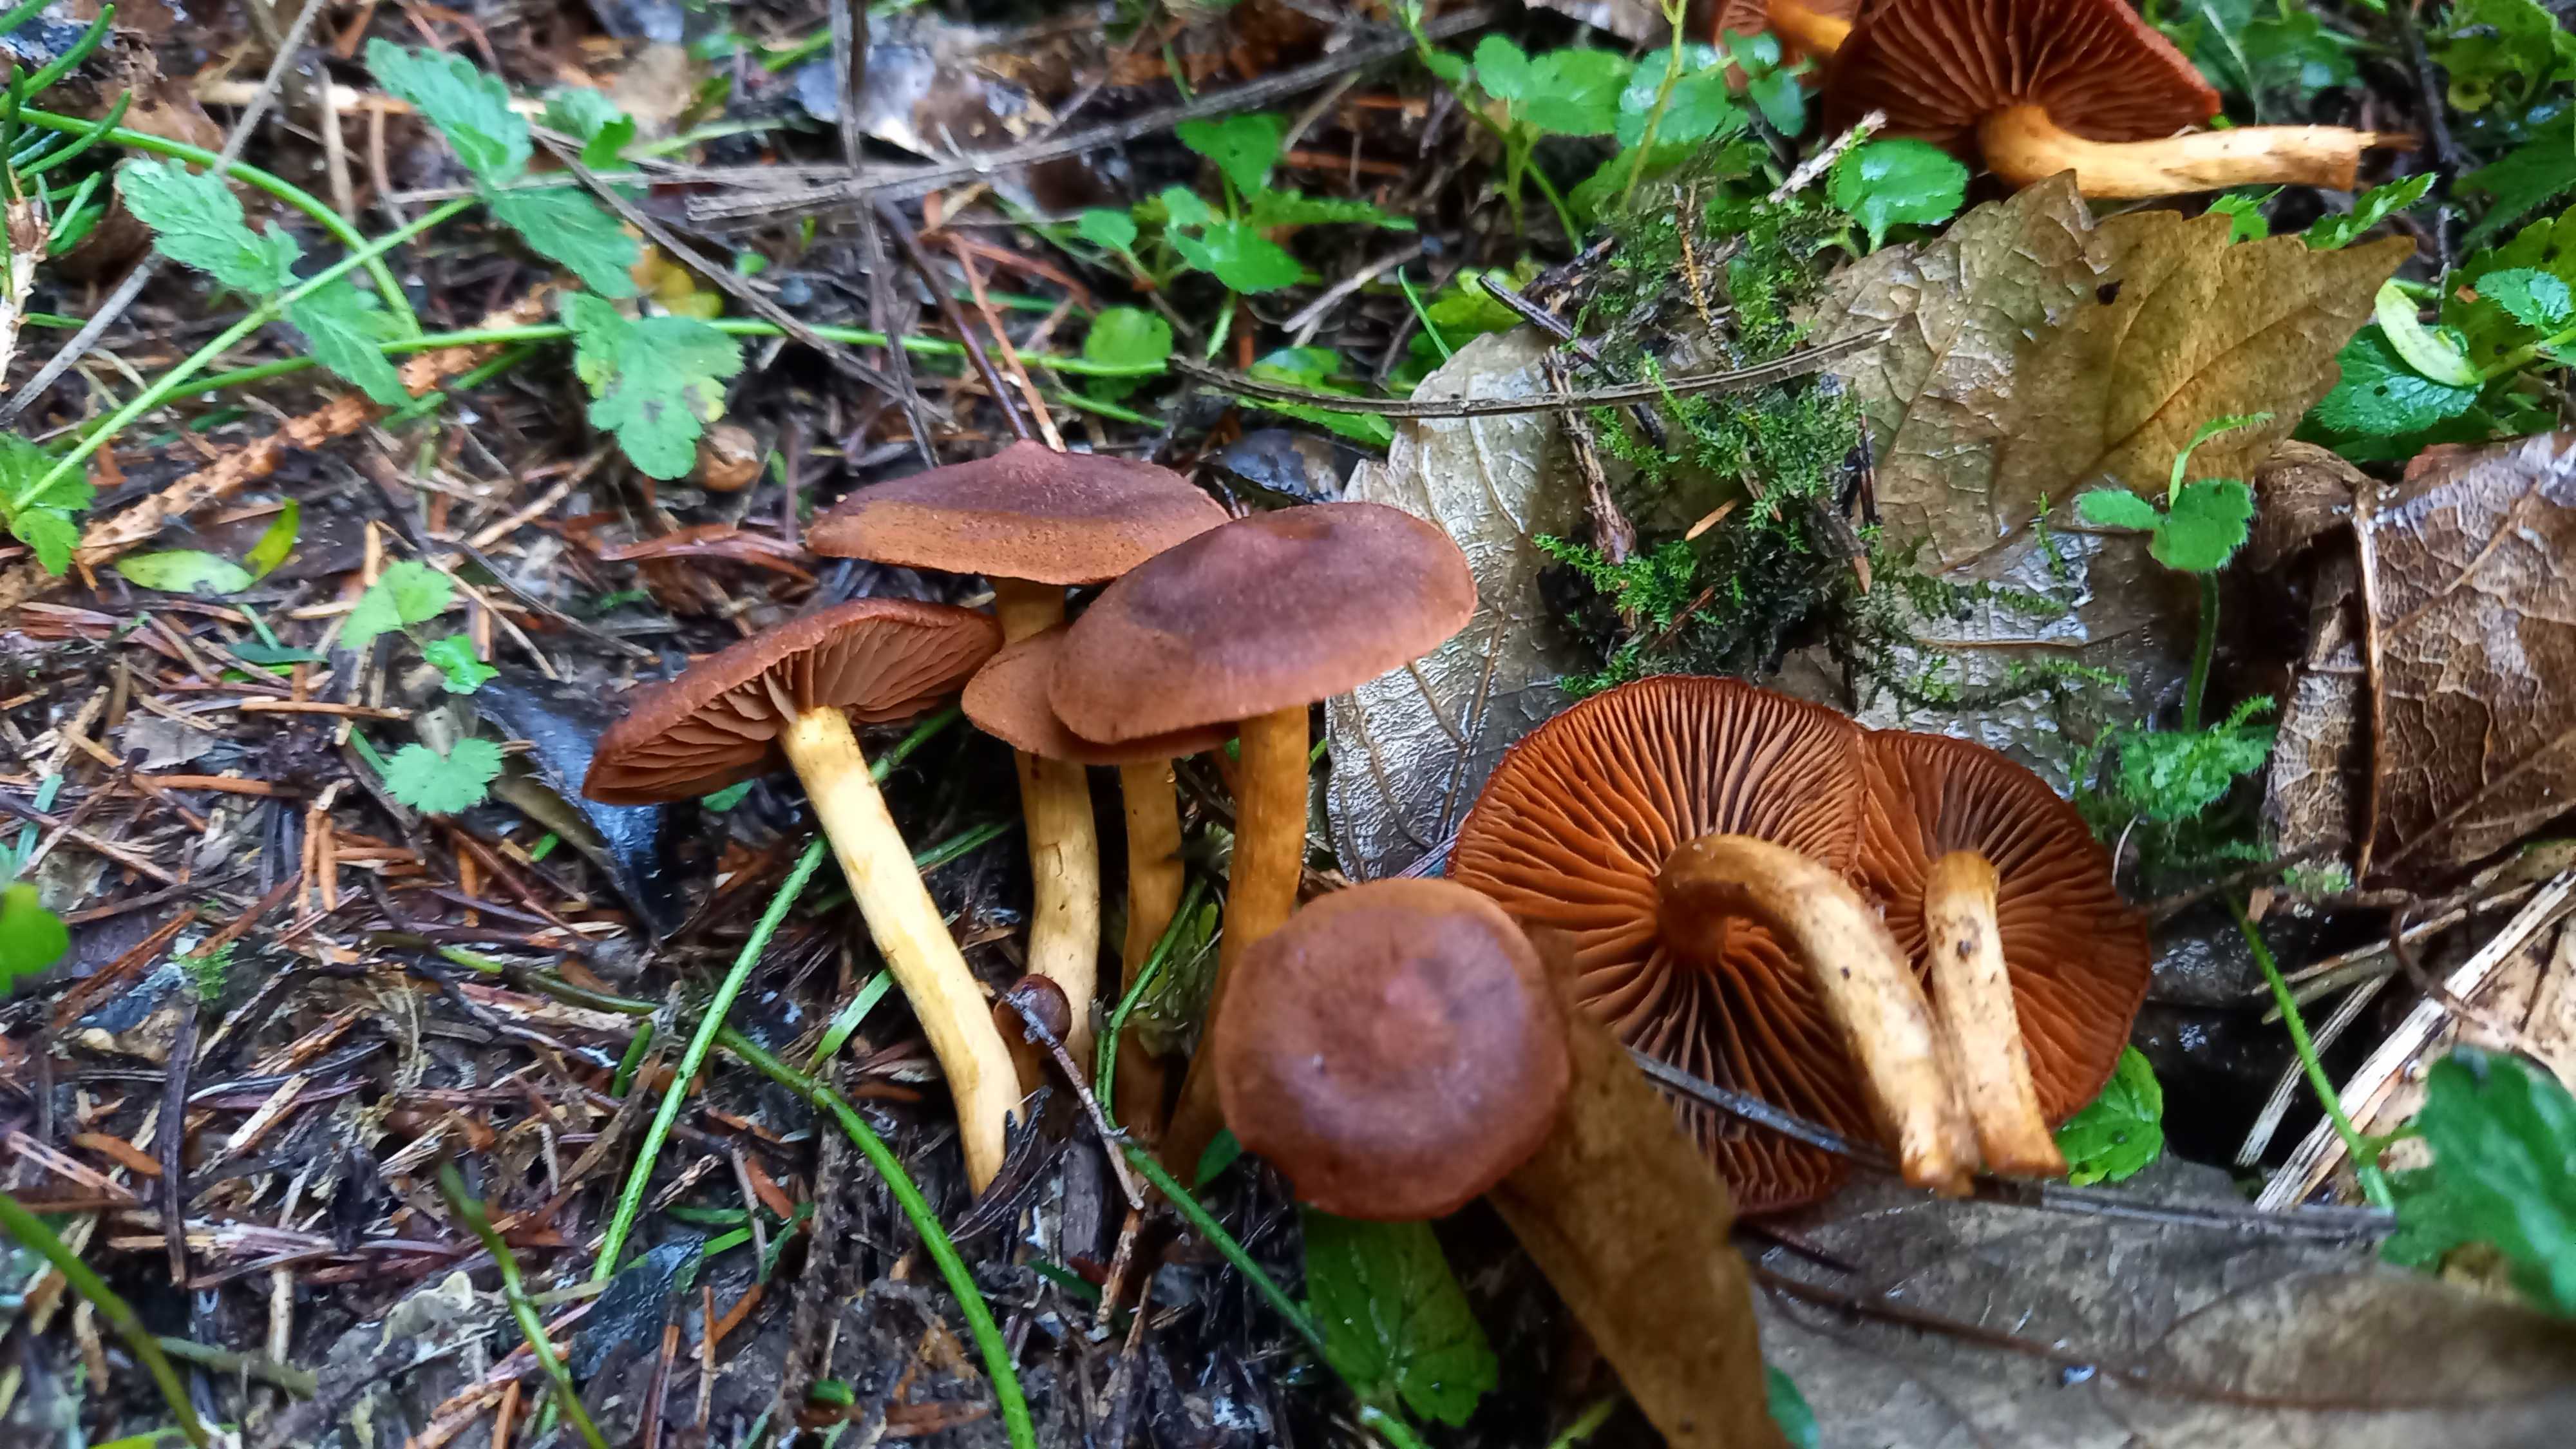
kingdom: Fungi
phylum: Basidiomycota
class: Agaricomycetes
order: Agaricales
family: Cortinariaceae
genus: Cortinarius
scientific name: Cortinarius
